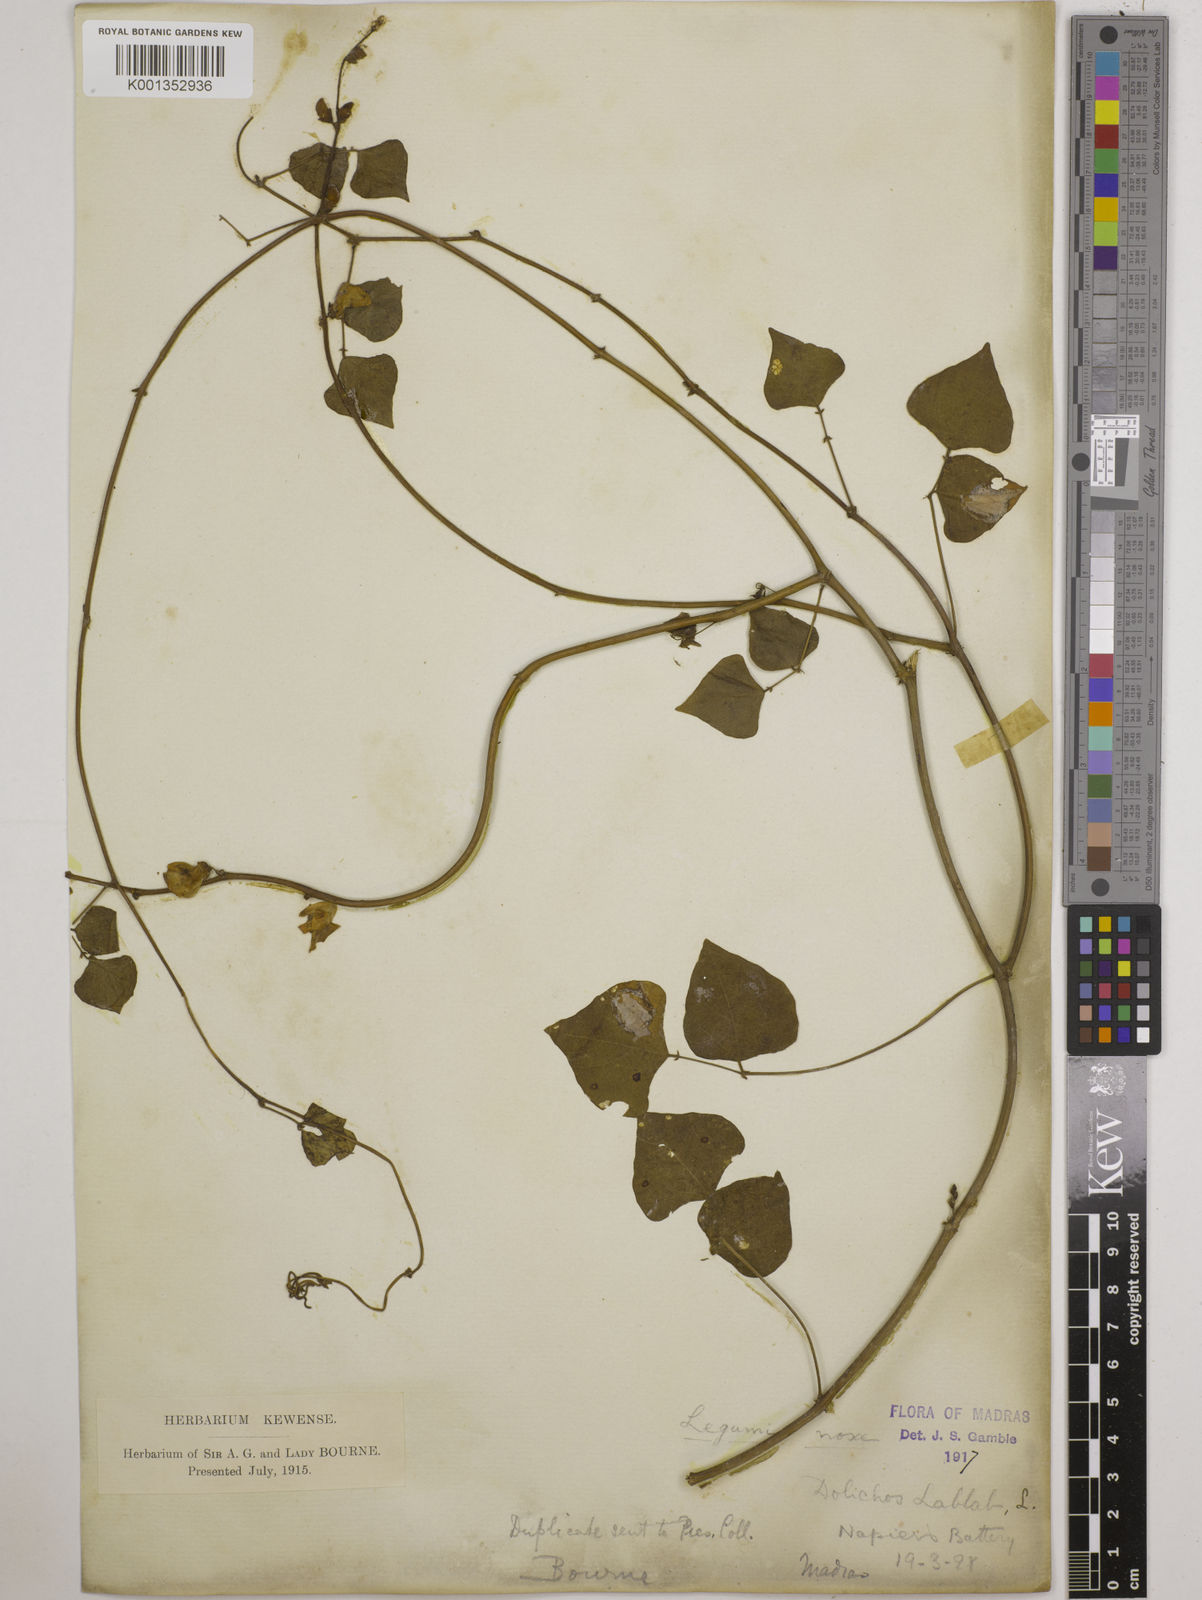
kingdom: Plantae
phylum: Tracheophyta
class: Magnoliopsida
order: Fabales
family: Fabaceae
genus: Lablab
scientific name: Lablab purpureus
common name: Lablab-bean
